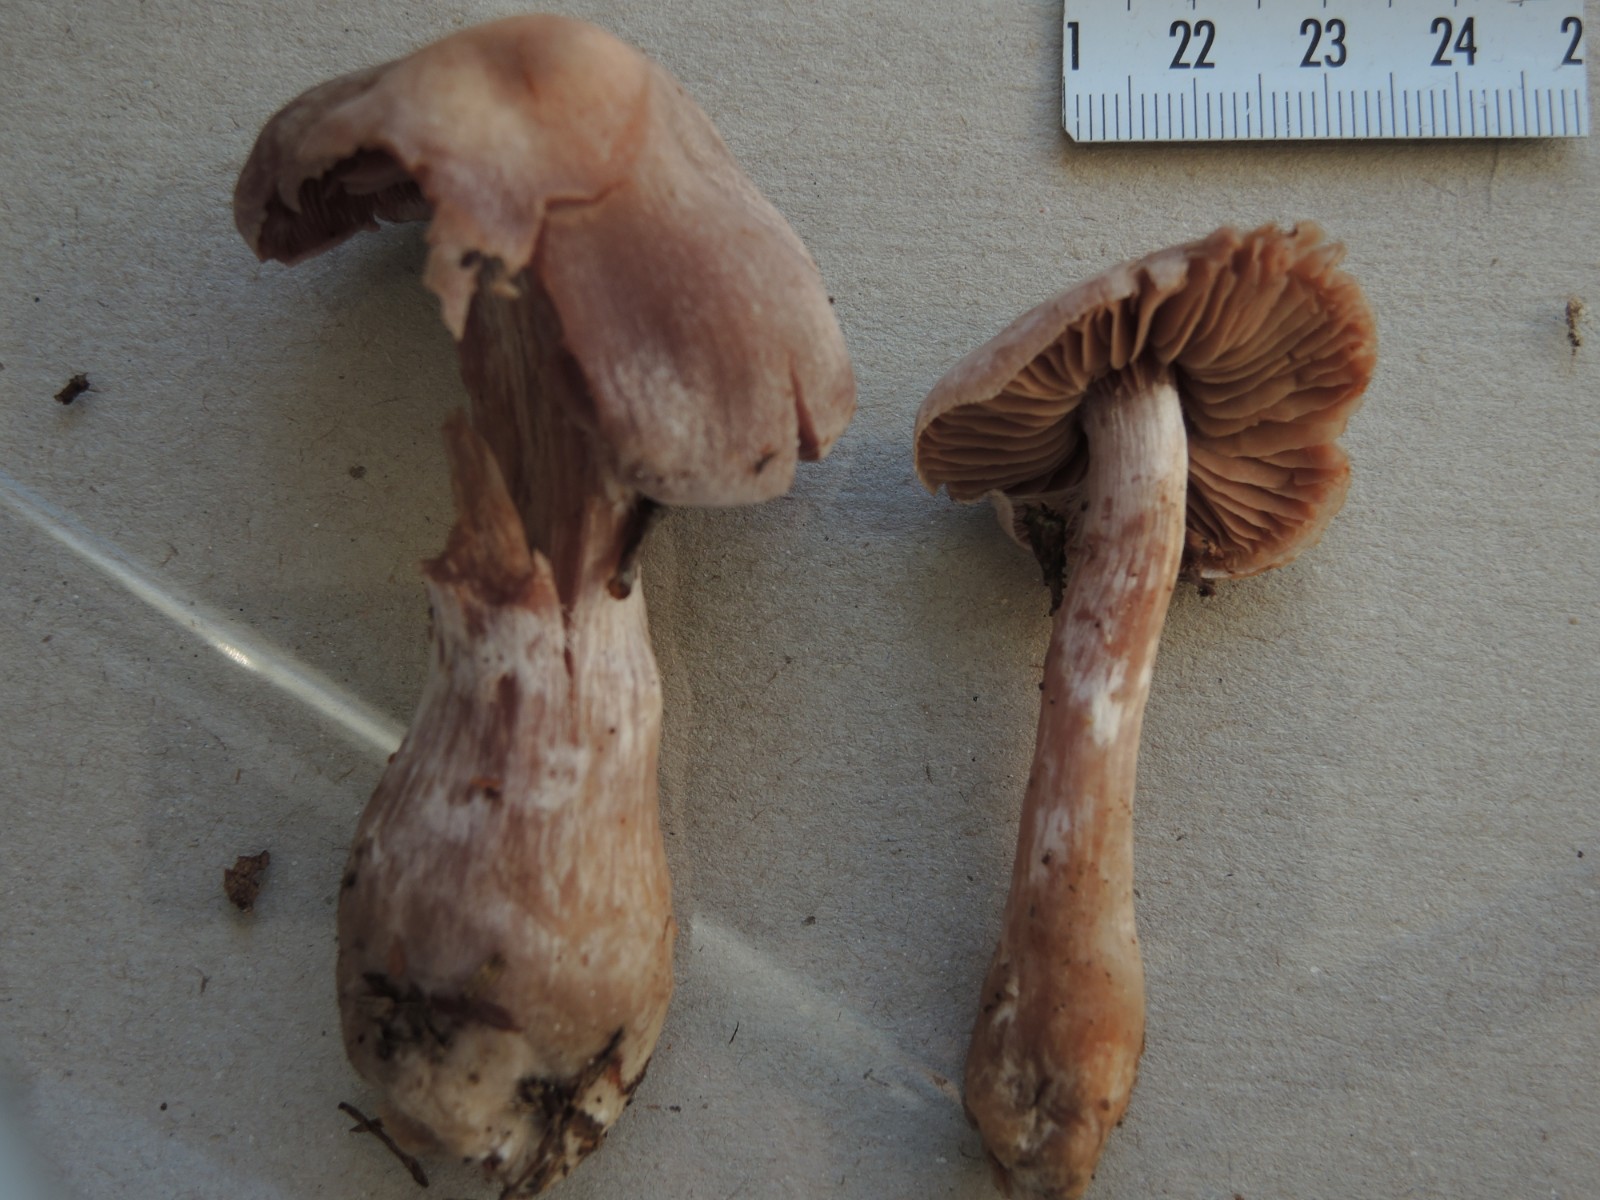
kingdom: Fungi
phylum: Basidiomycota
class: Agaricomycetes
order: Agaricales
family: Cortinariaceae
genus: Cortinarius
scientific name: Cortinarius malachius
